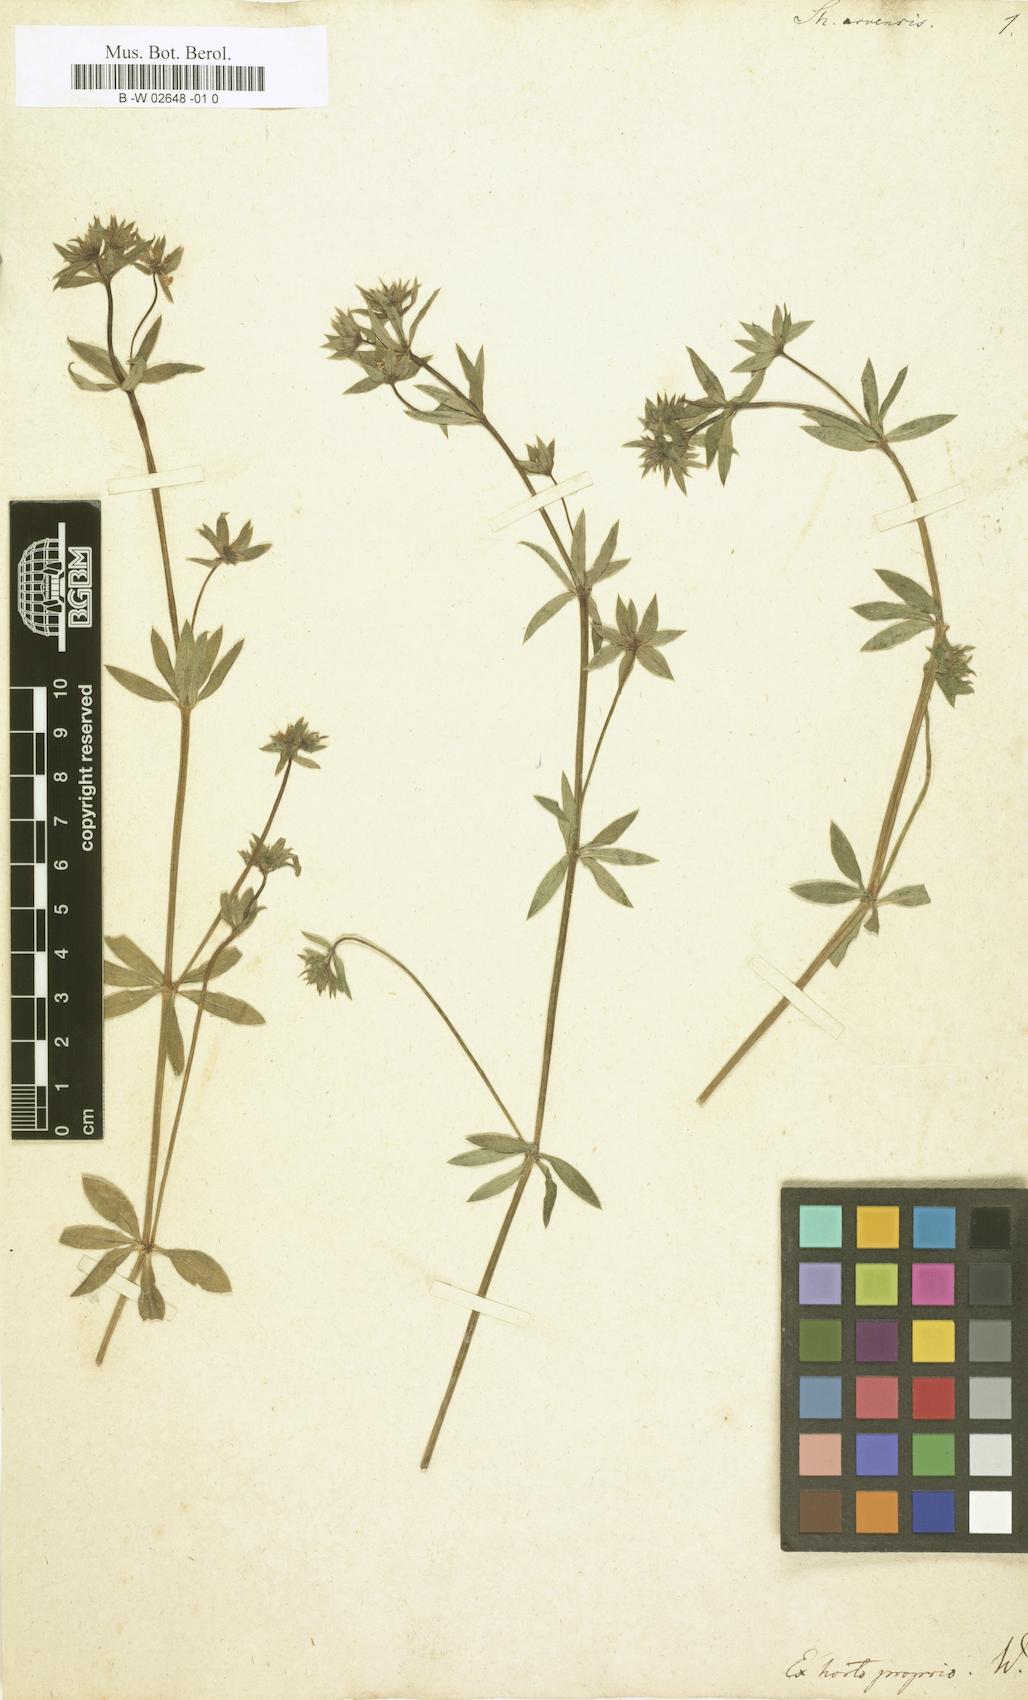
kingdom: Plantae
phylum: Tracheophyta
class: Magnoliopsida
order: Gentianales
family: Rubiaceae
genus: Sherardia
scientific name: Sherardia arvensis
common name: Field madder
